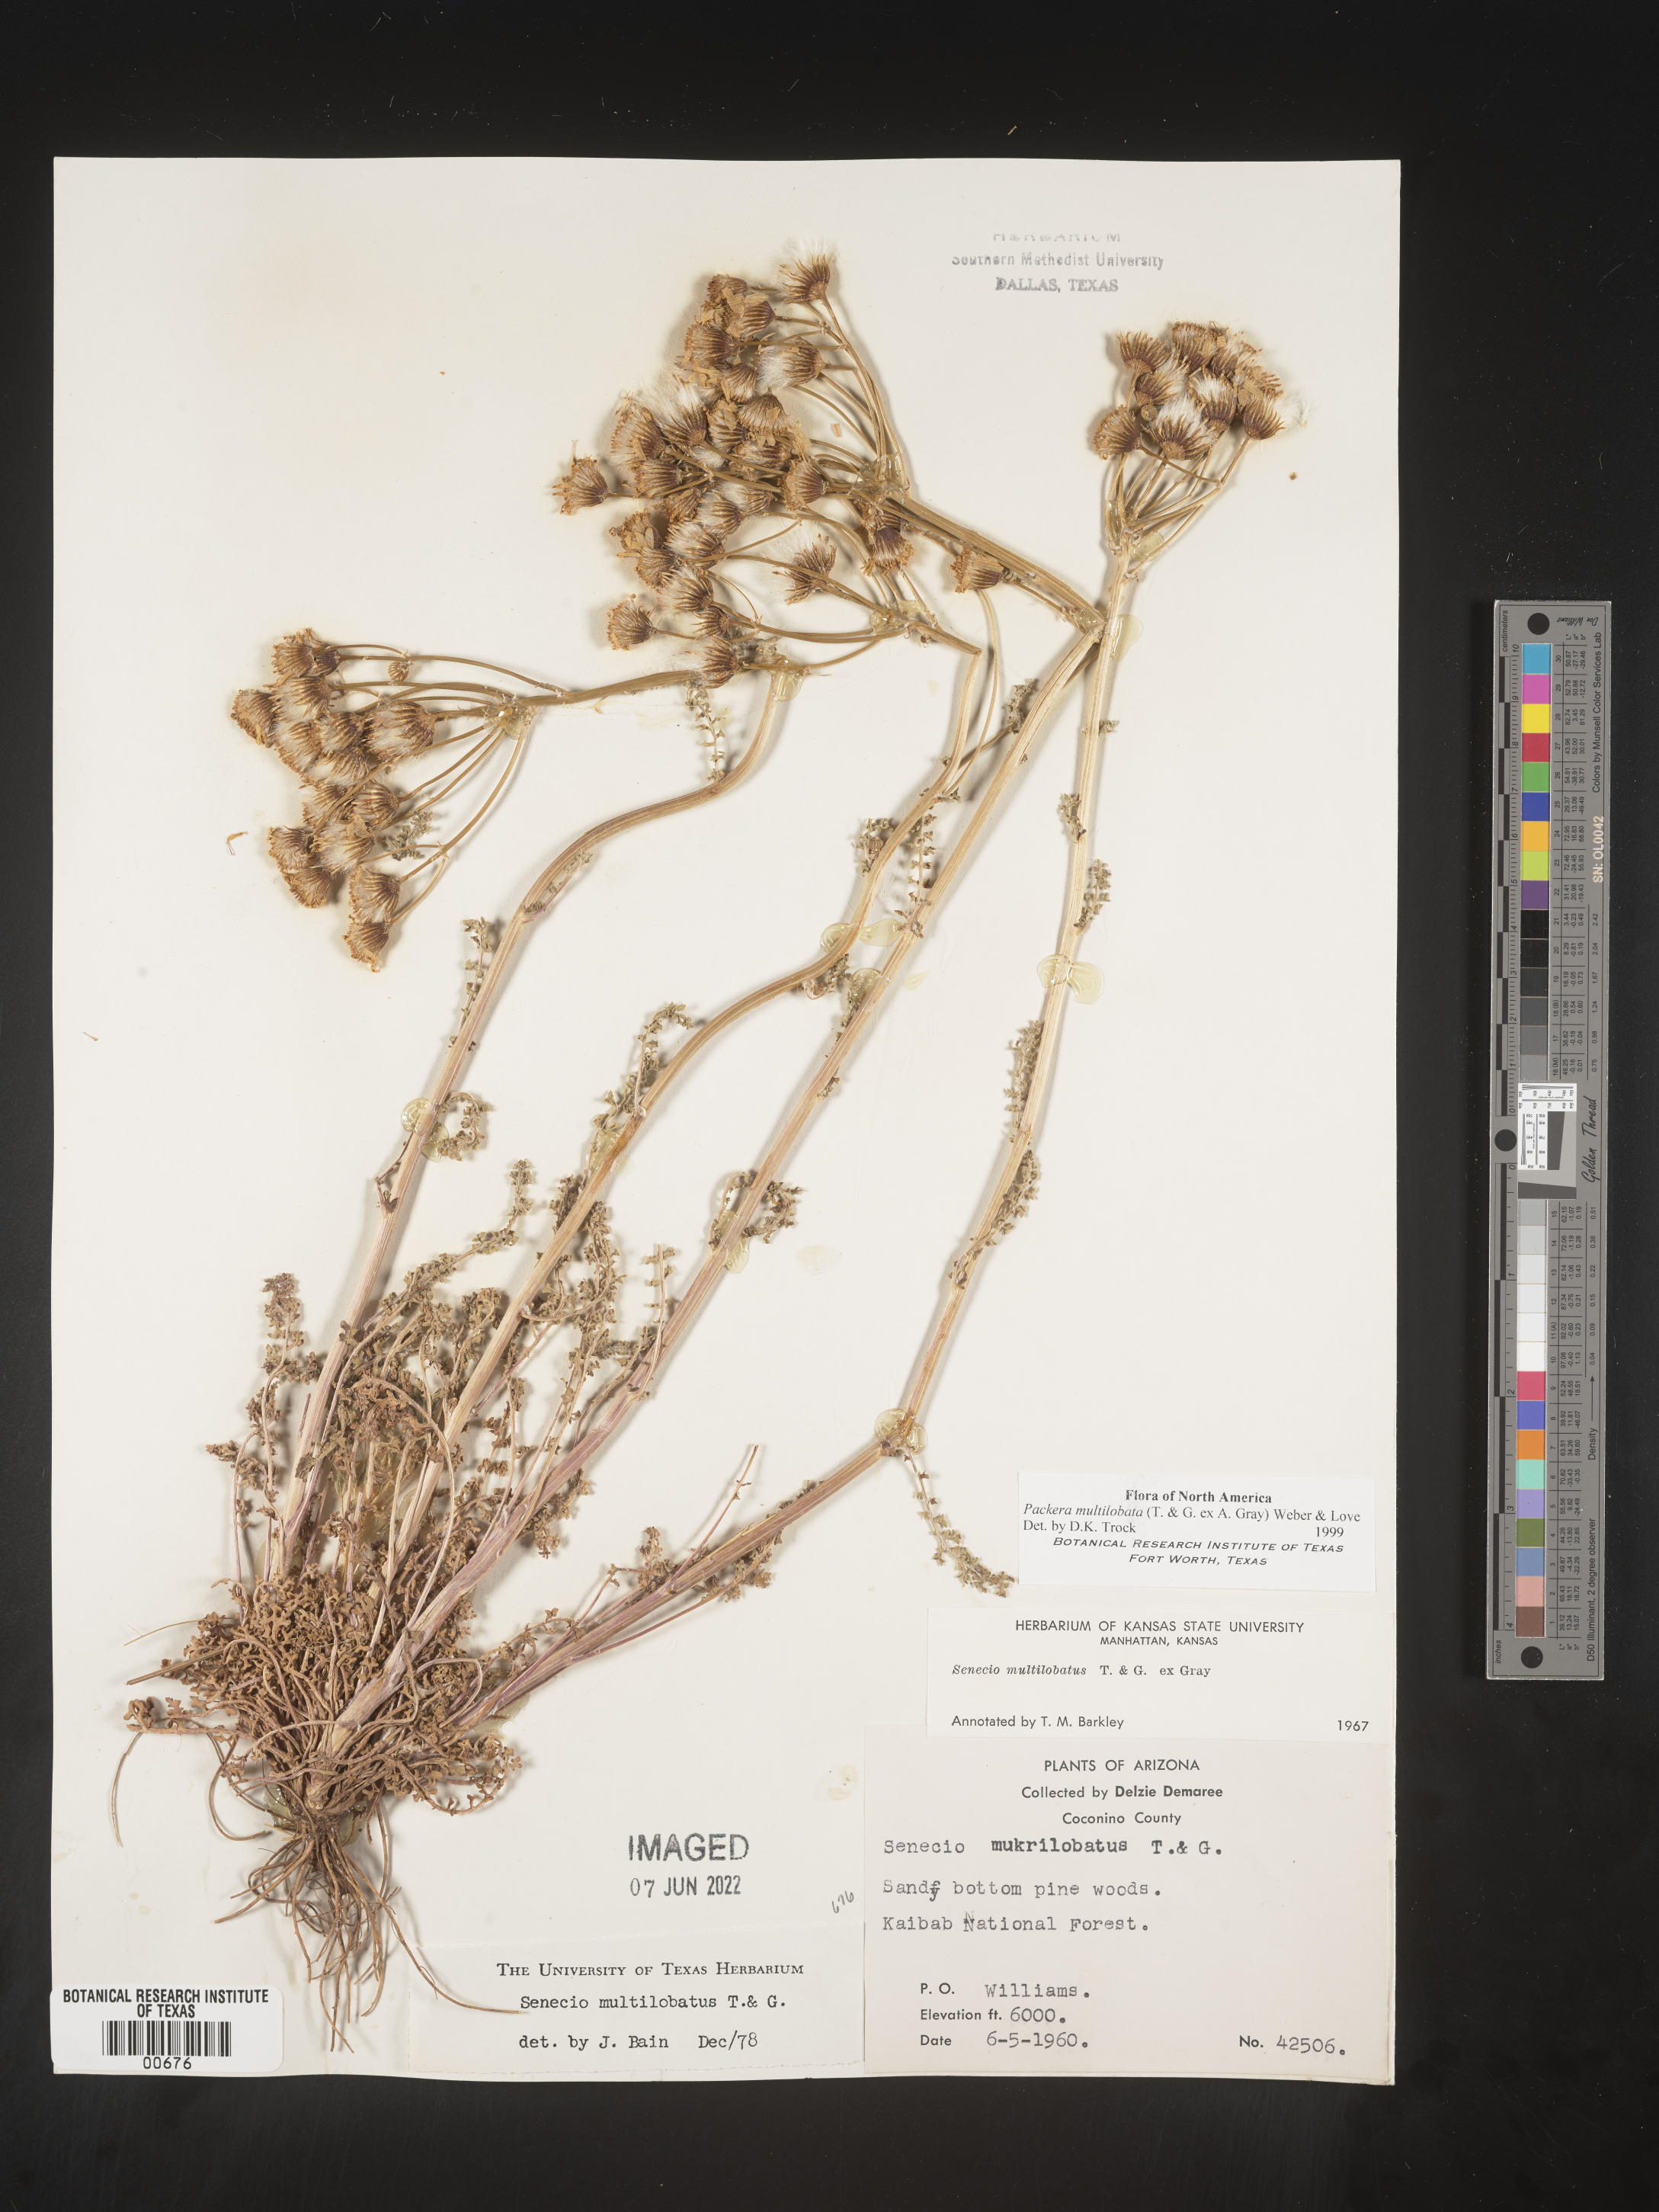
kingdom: Plantae
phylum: Tracheophyta
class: Magnoliopsida
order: Asterales
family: Asteraceae
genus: Packera
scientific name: Packera multilobata
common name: Lobe-leaf groundsel
